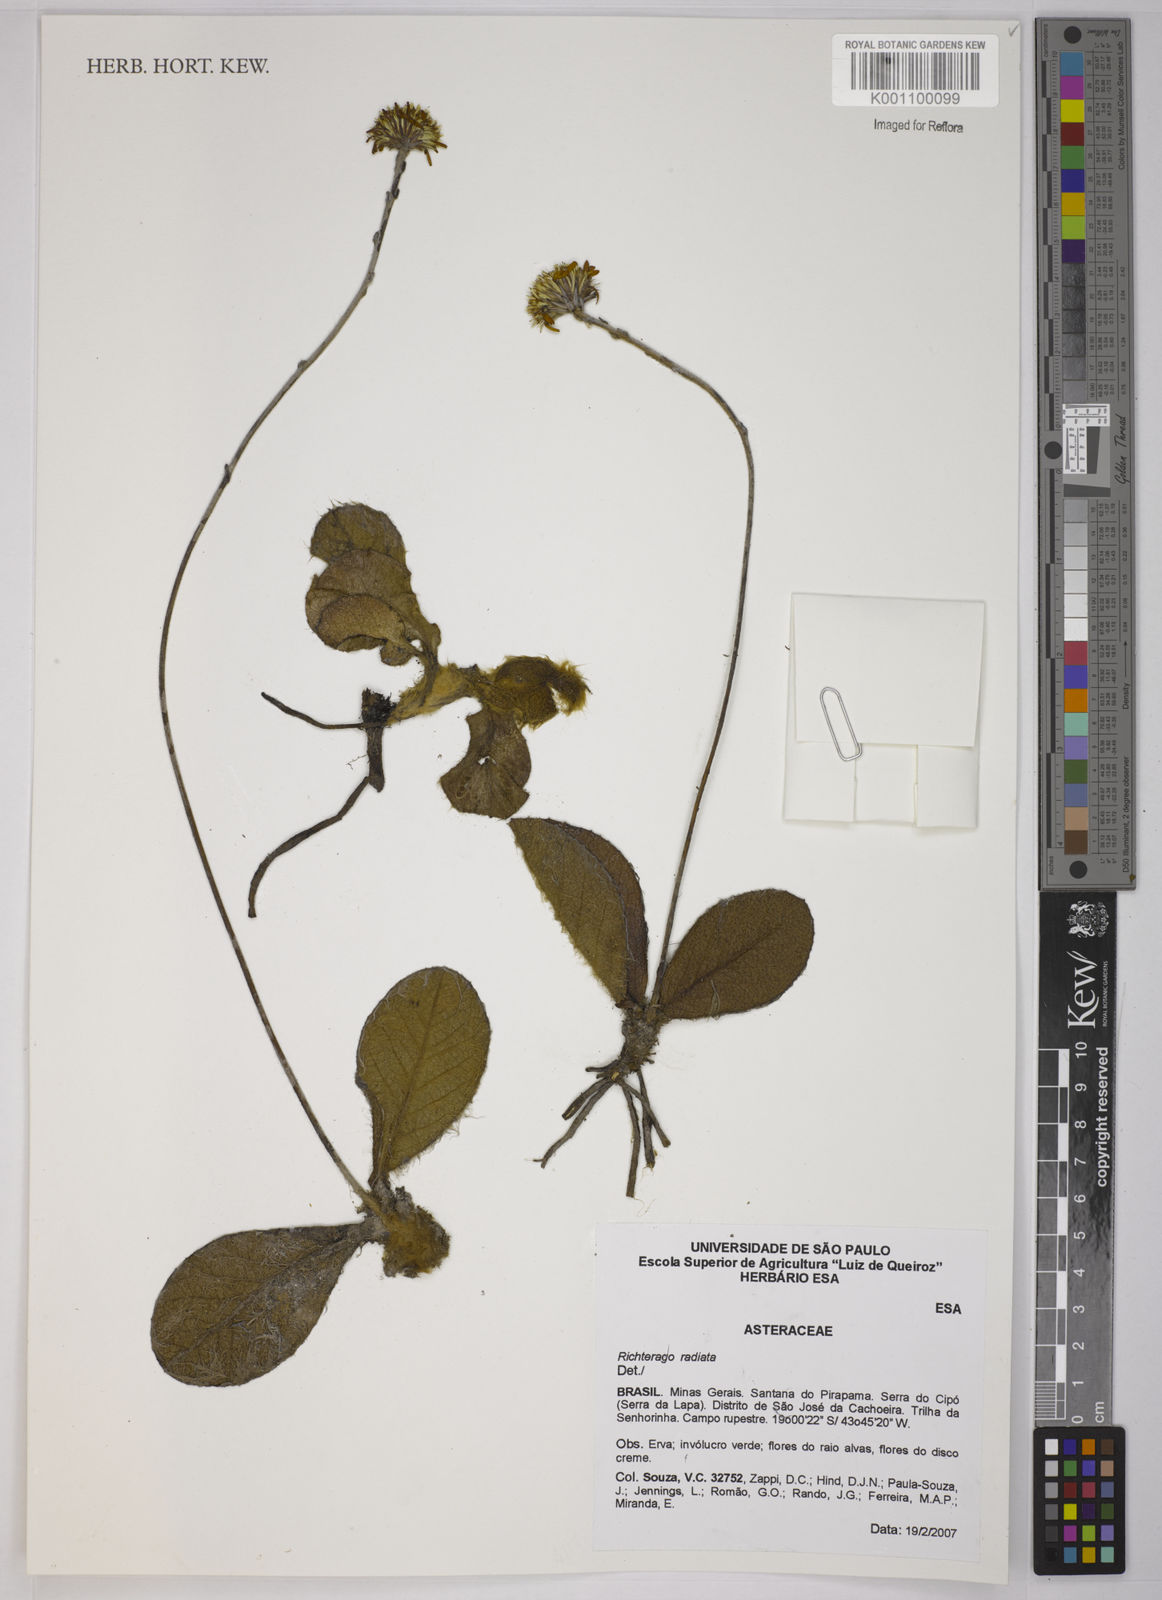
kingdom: Plantae
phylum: Tracheophyta
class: Magnoliopsida
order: Asterales
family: Asteraceae
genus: Richterago
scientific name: Richterago radiata
